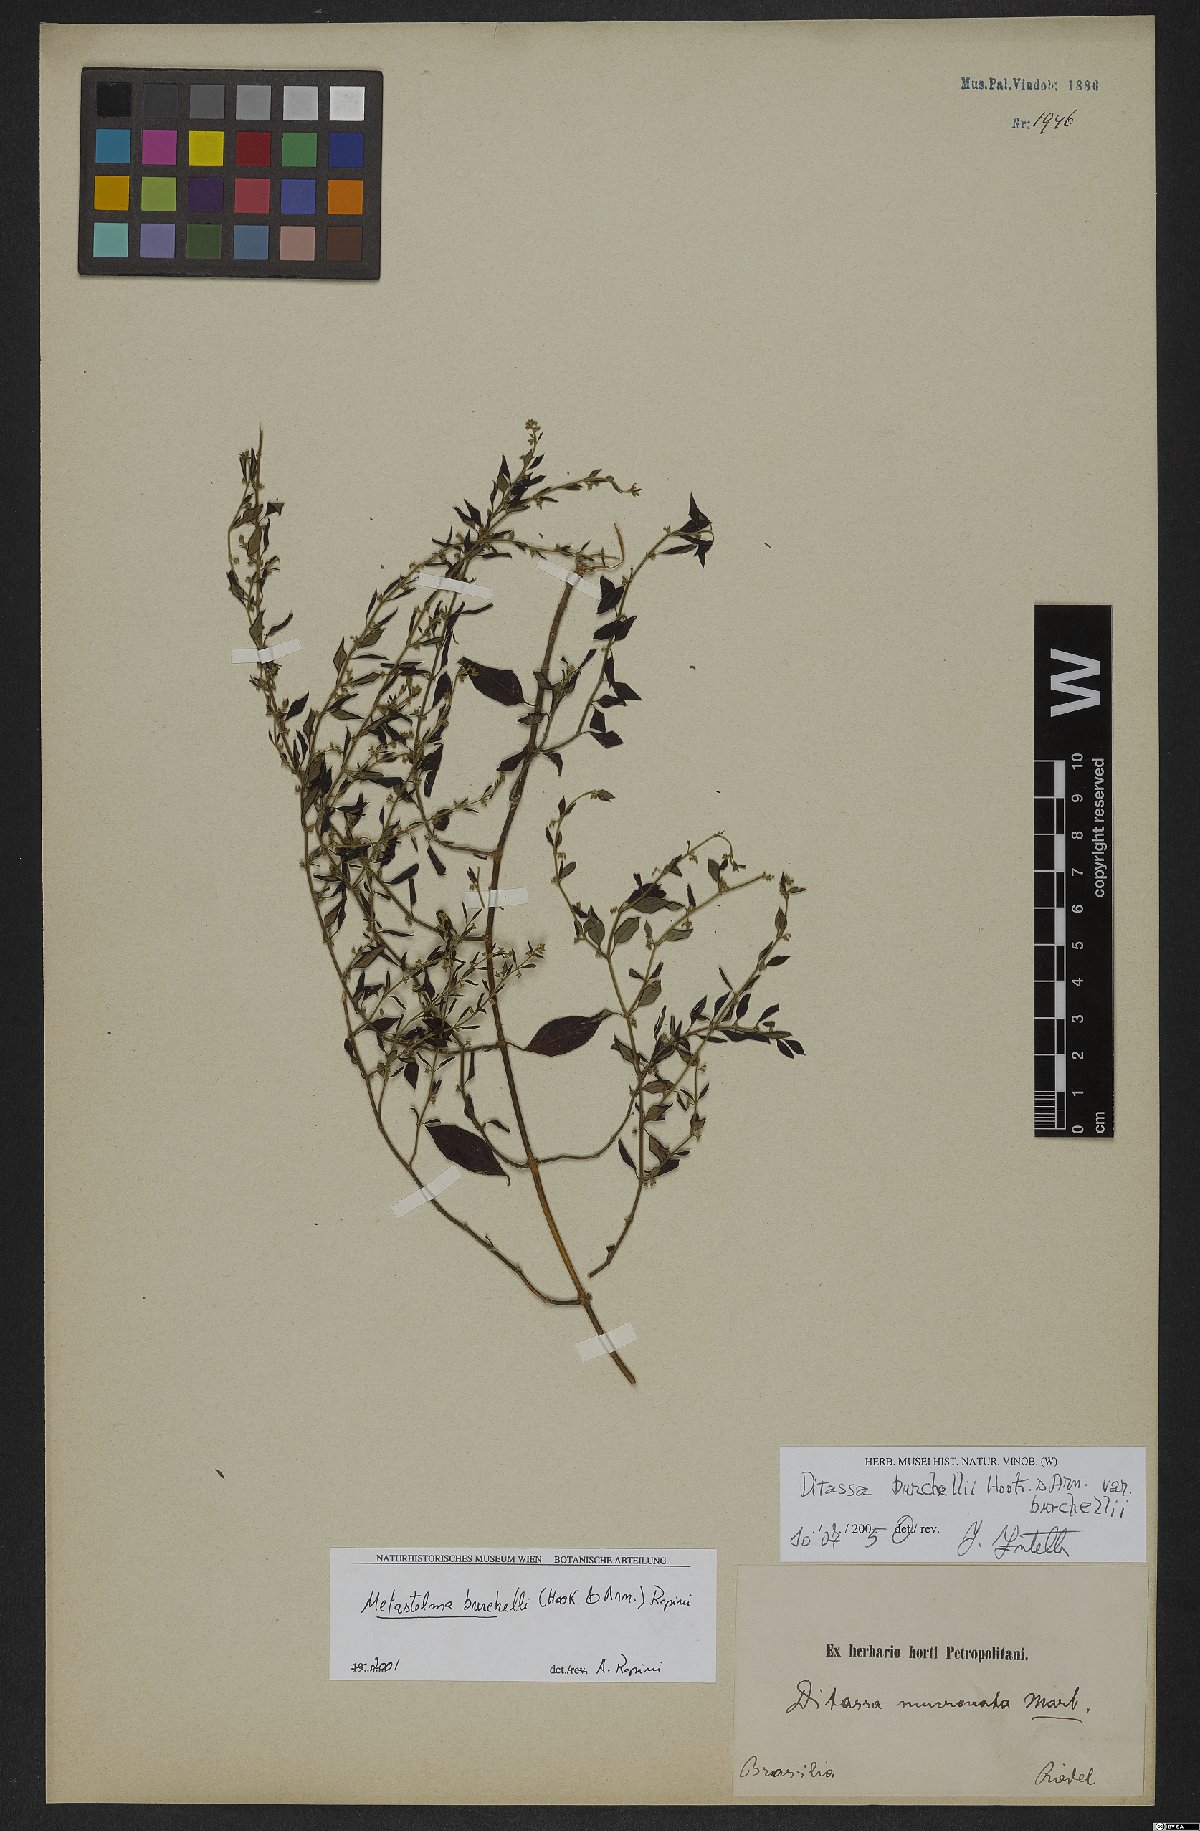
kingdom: Plantae
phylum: Tracheophyta
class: Magnoliopsida
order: Gentianales
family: Apocynaceae
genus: Metastelma
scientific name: Metastelma burchellii
